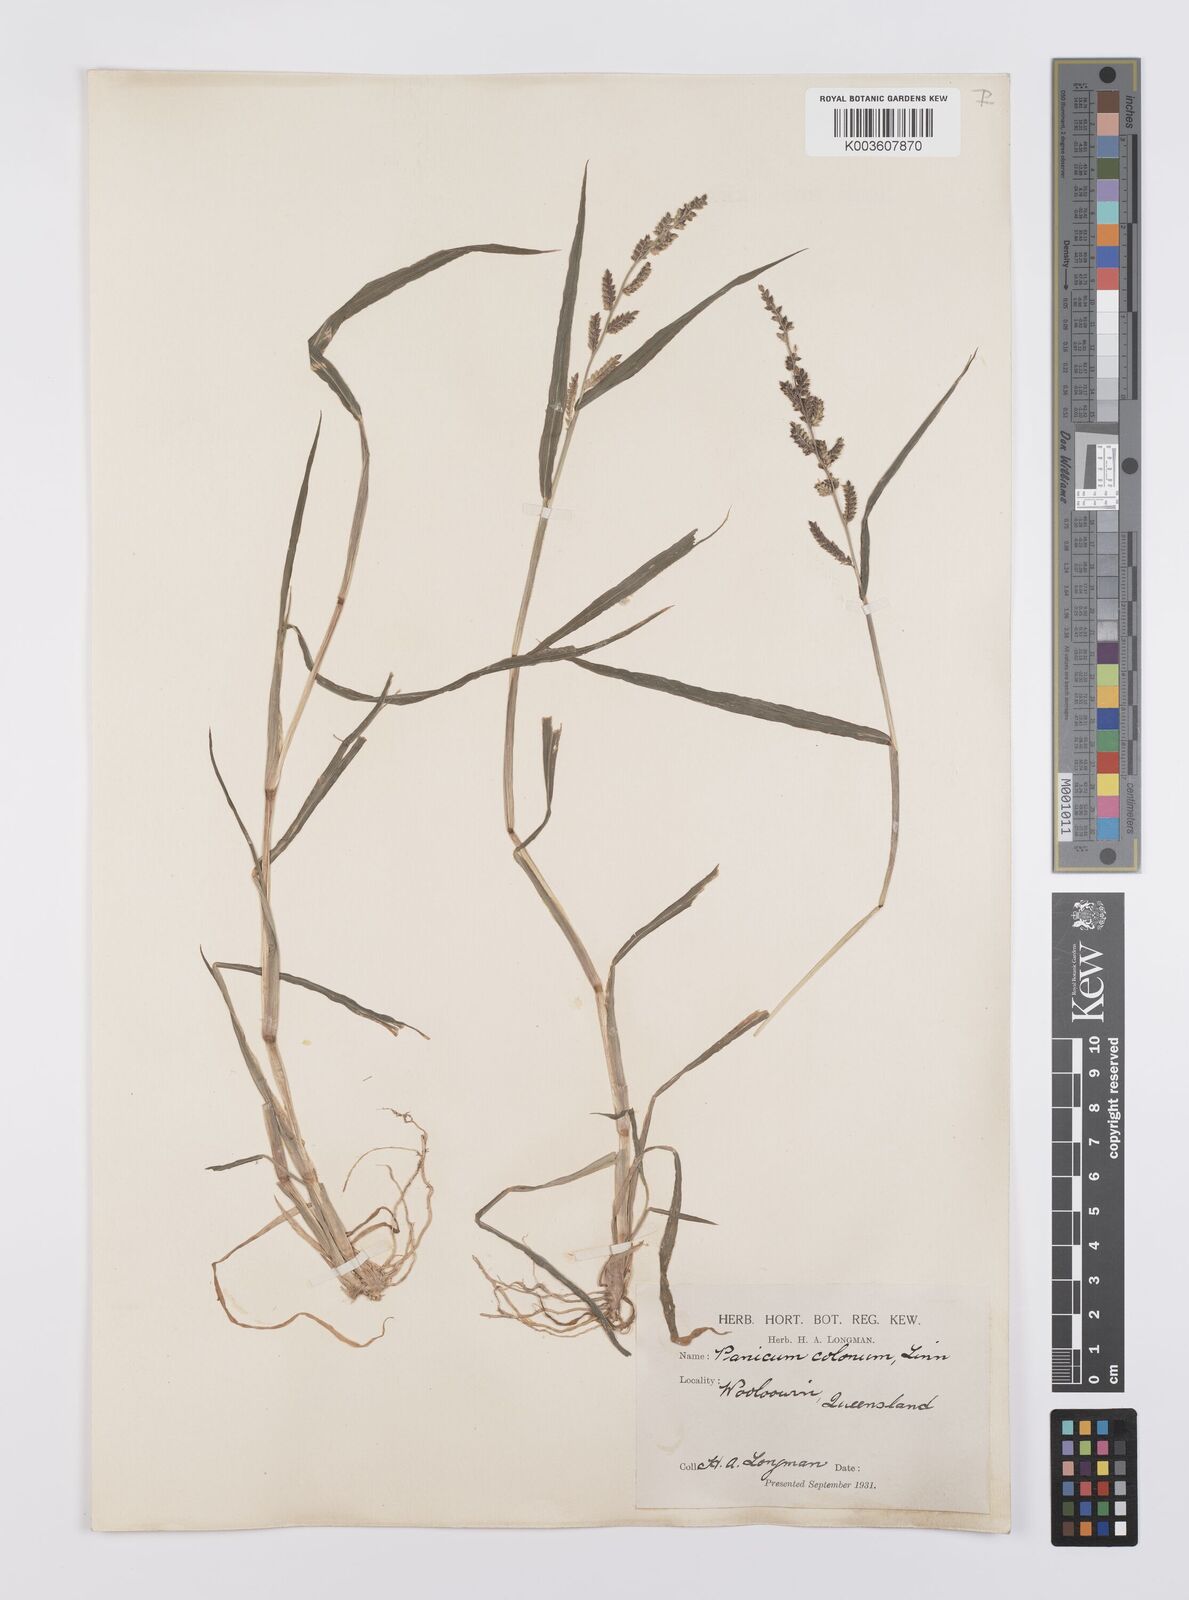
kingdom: Plantae
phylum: Tracheophyta
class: Liliopsida
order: Poales
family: Poaceae
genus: Echinochloa
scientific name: Echinochloa colonum
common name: Jungle rice
